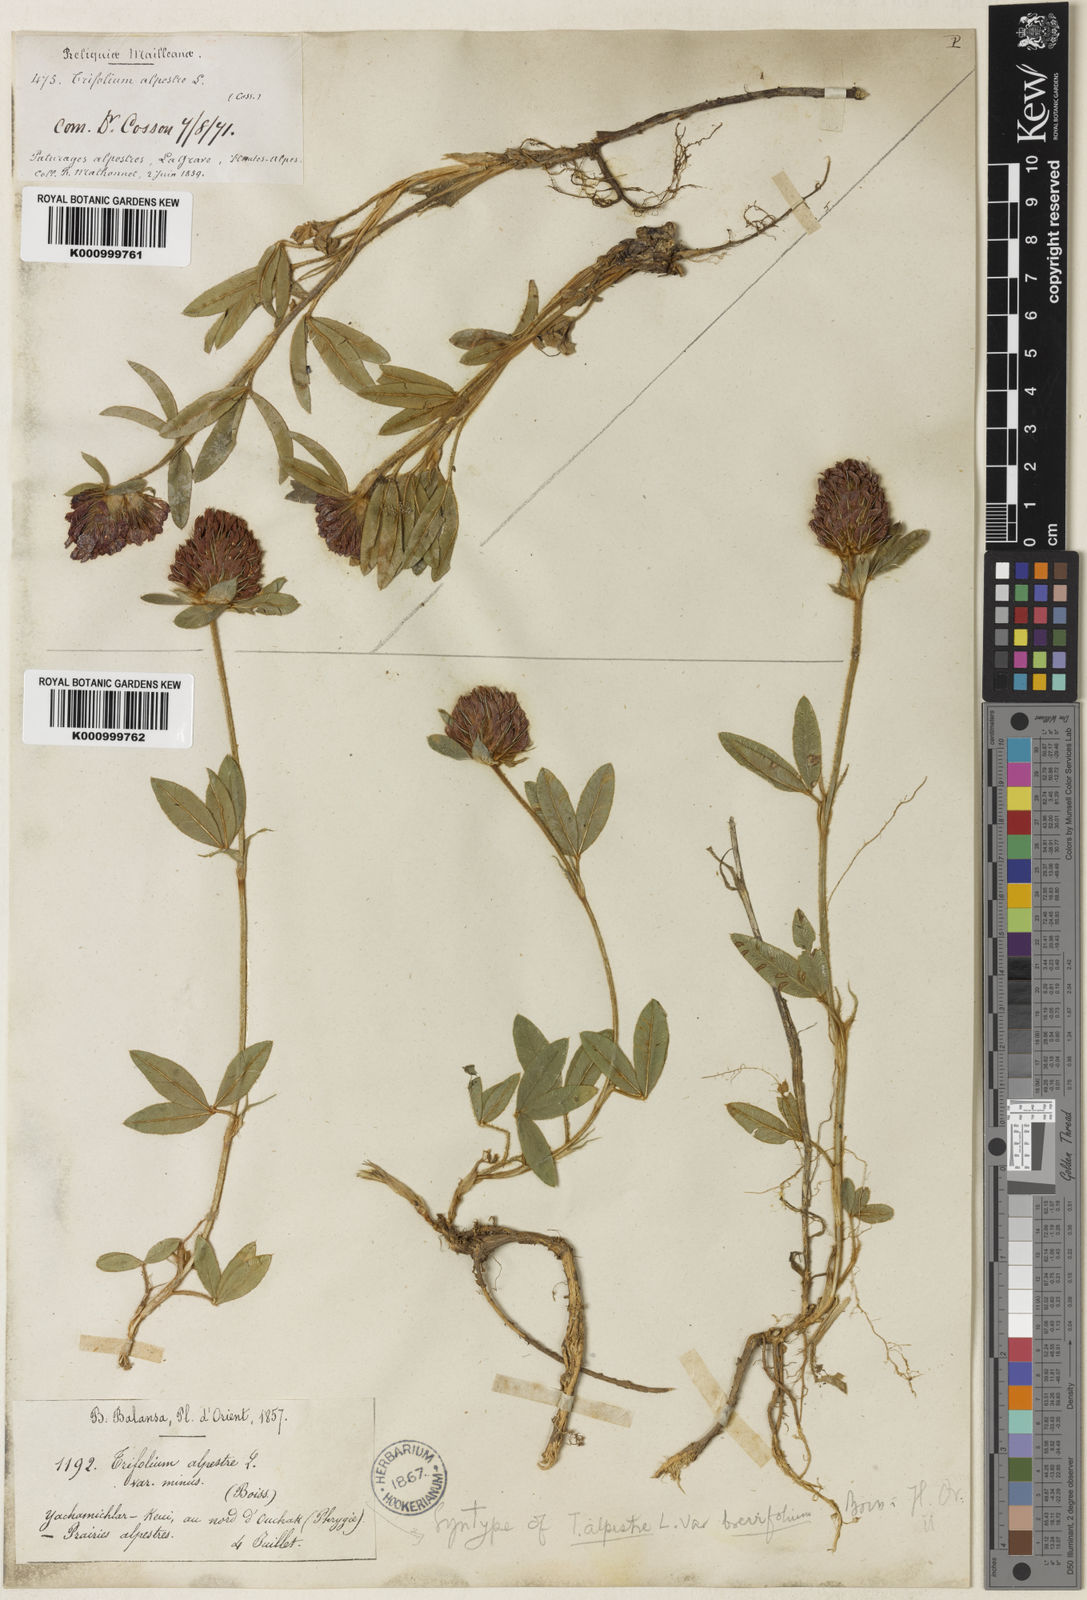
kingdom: Plantae
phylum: Tracheophyta
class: Magnoliopsida
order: Fabales
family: Fabaceae
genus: Trifolium
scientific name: Trifolium alpestre
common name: Owl-head clover
